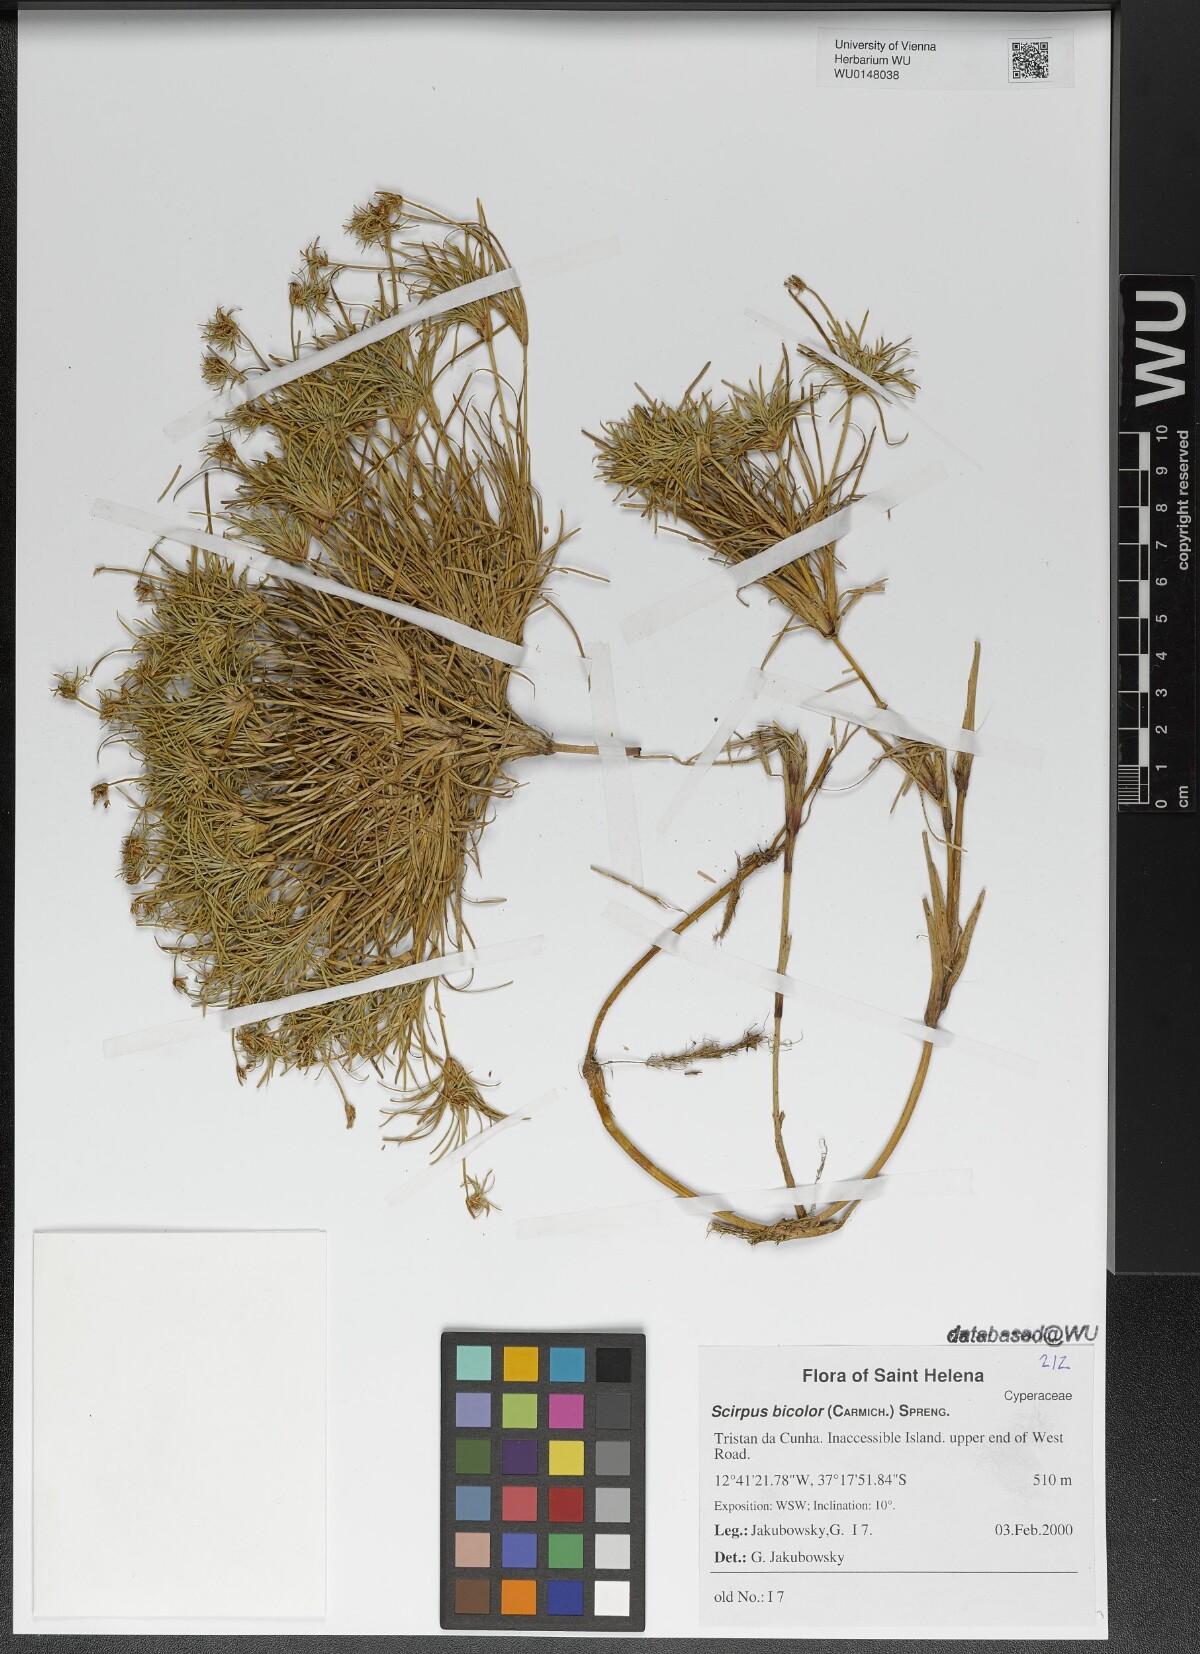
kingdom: Plantae
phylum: Tracheophyta
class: Liliopsida
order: Poales
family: Cyperaceae
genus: Isolepis
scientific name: Isolepis bicolor
